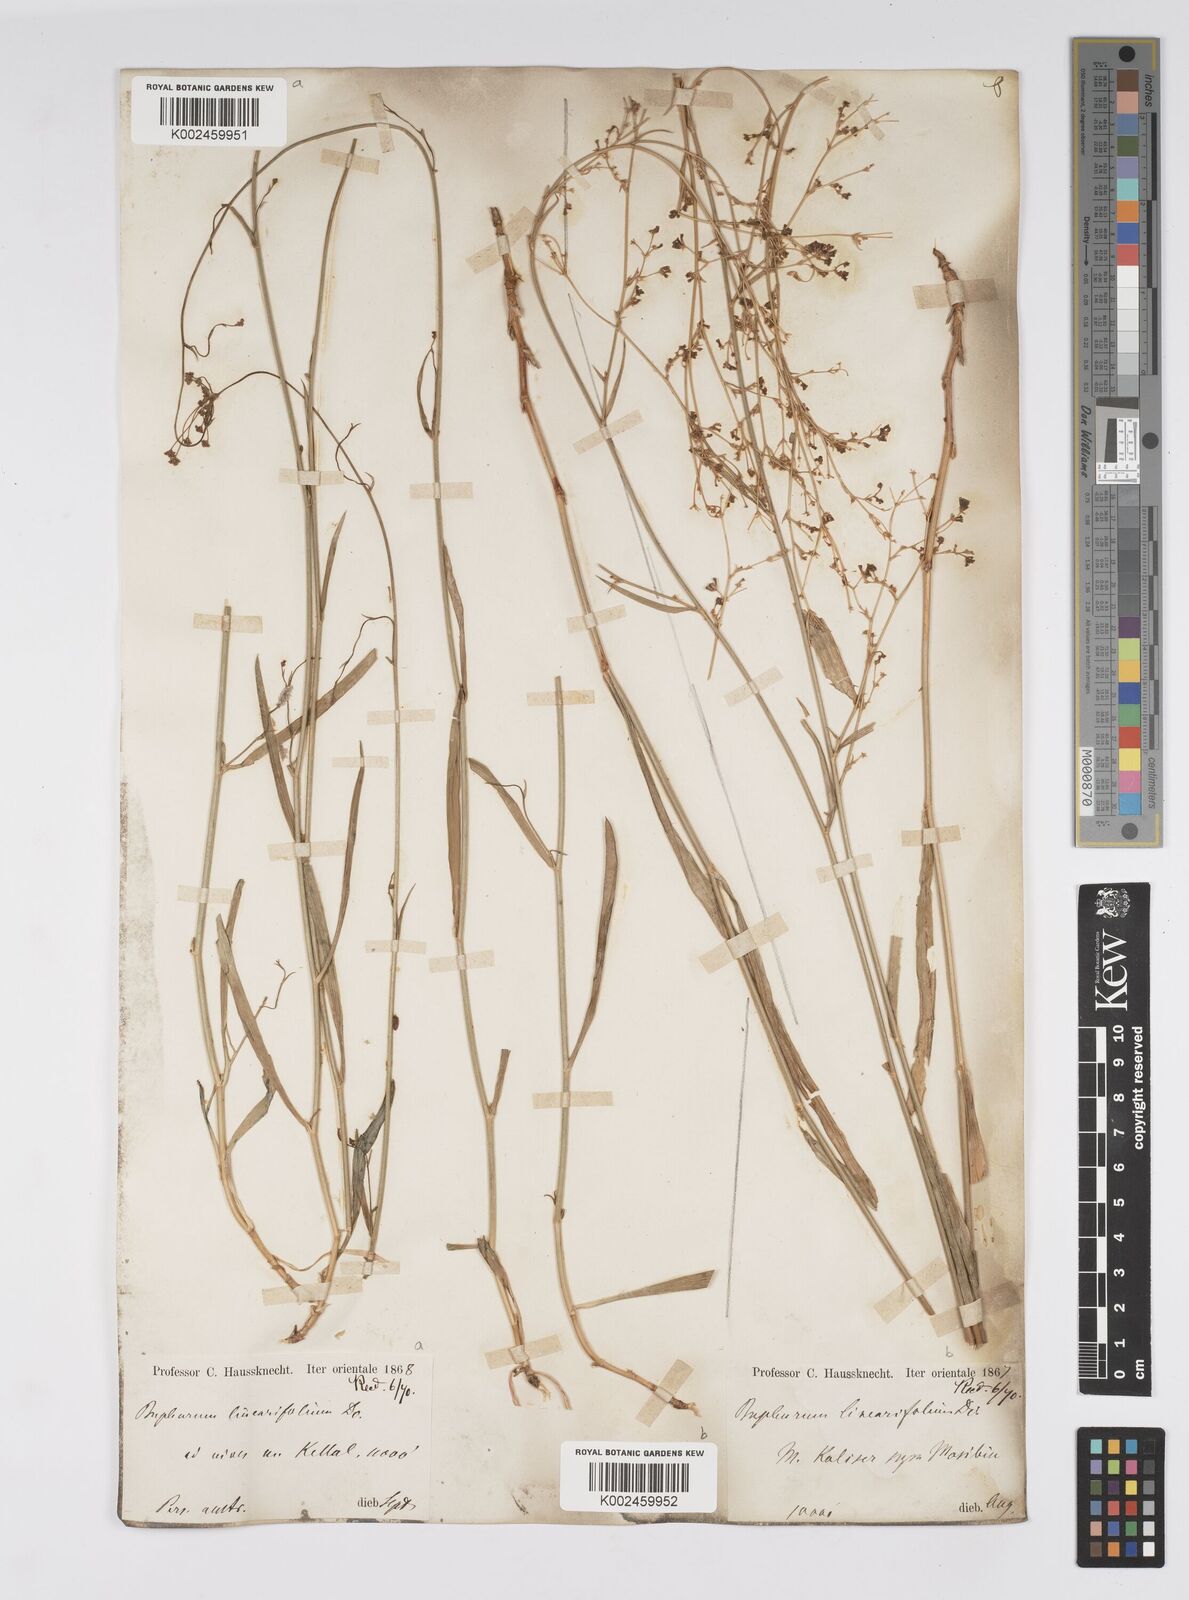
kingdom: Plantae
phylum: Tracheophyta
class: Magnoliopsida
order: Apiales
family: Apiaceae
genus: Bupleurum
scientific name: Bupleurum falcatum
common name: Sickle-leaved hare's-ear
